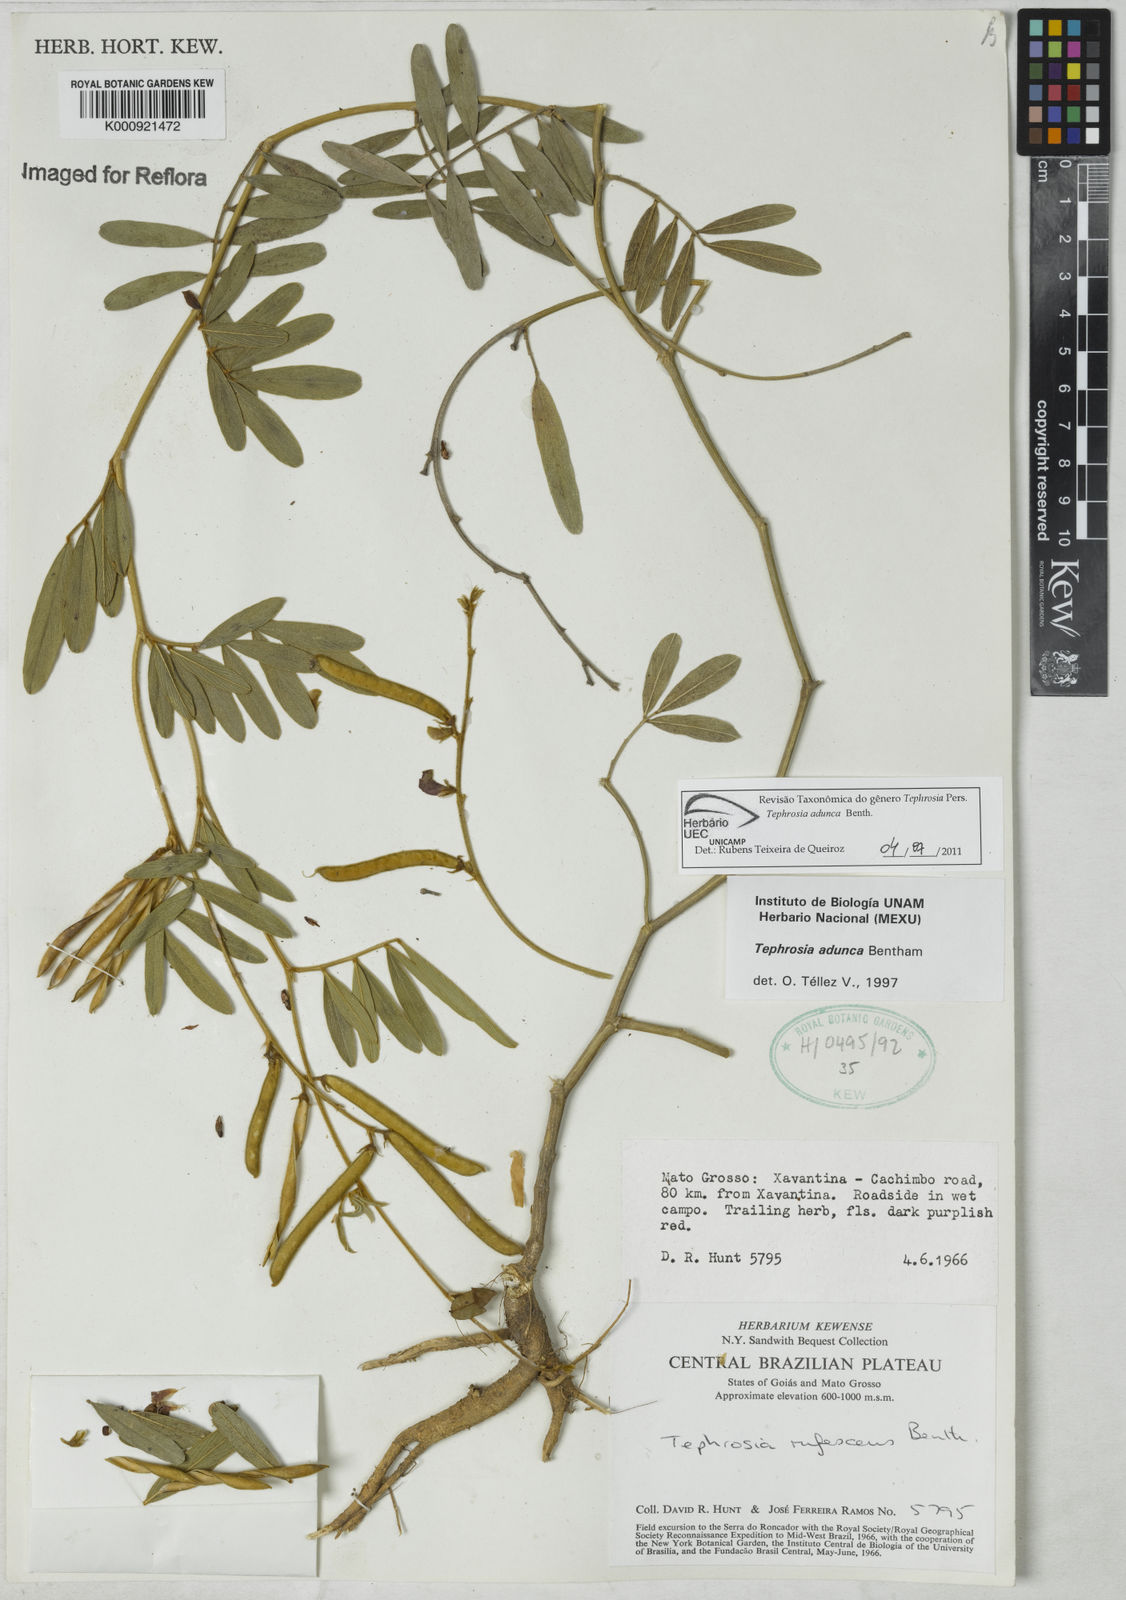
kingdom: Plantae
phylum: Tracheophyta
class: Magnoliopsida
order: Fabales
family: Fabaceae
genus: Tephrosia
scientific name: Tephrosia adunca
